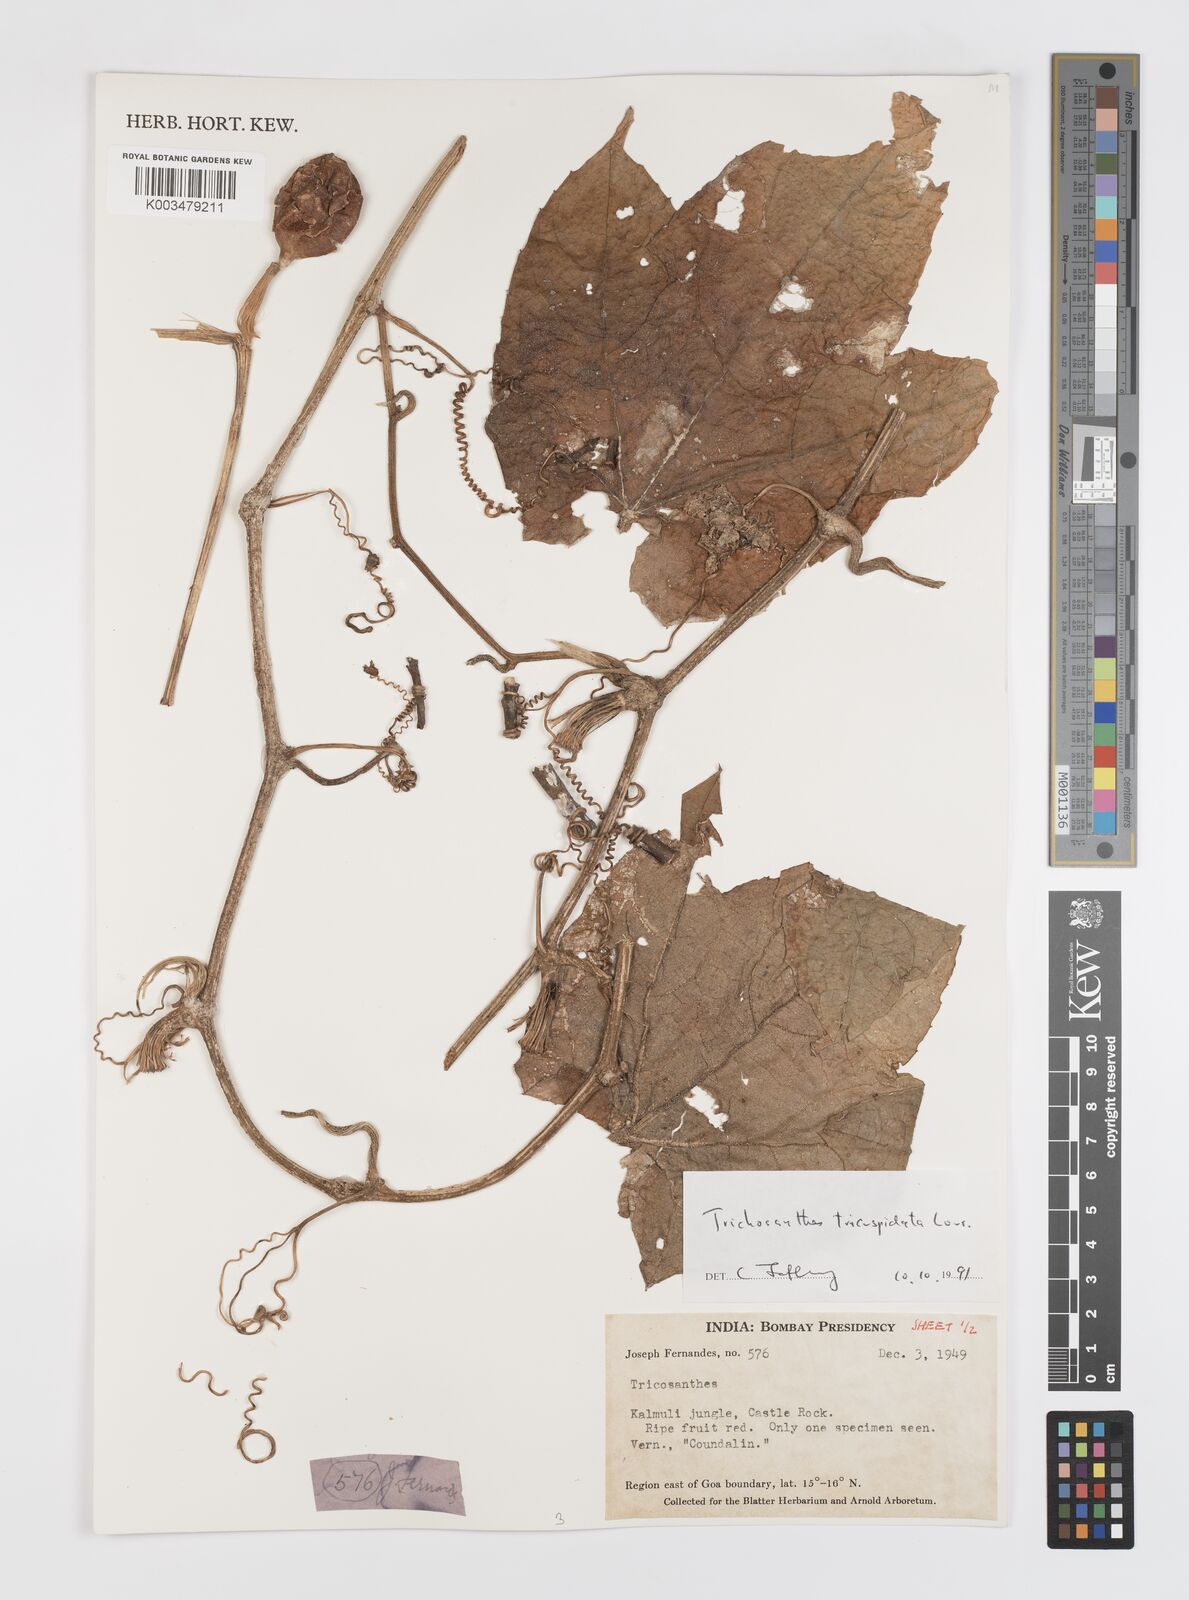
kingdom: Plantae
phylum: Tracheophyta
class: Magnoliopsida
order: Cucurbitales
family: Cucurbitaceae
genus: Trichosanthes
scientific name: Trichosanthes tricuspidata
